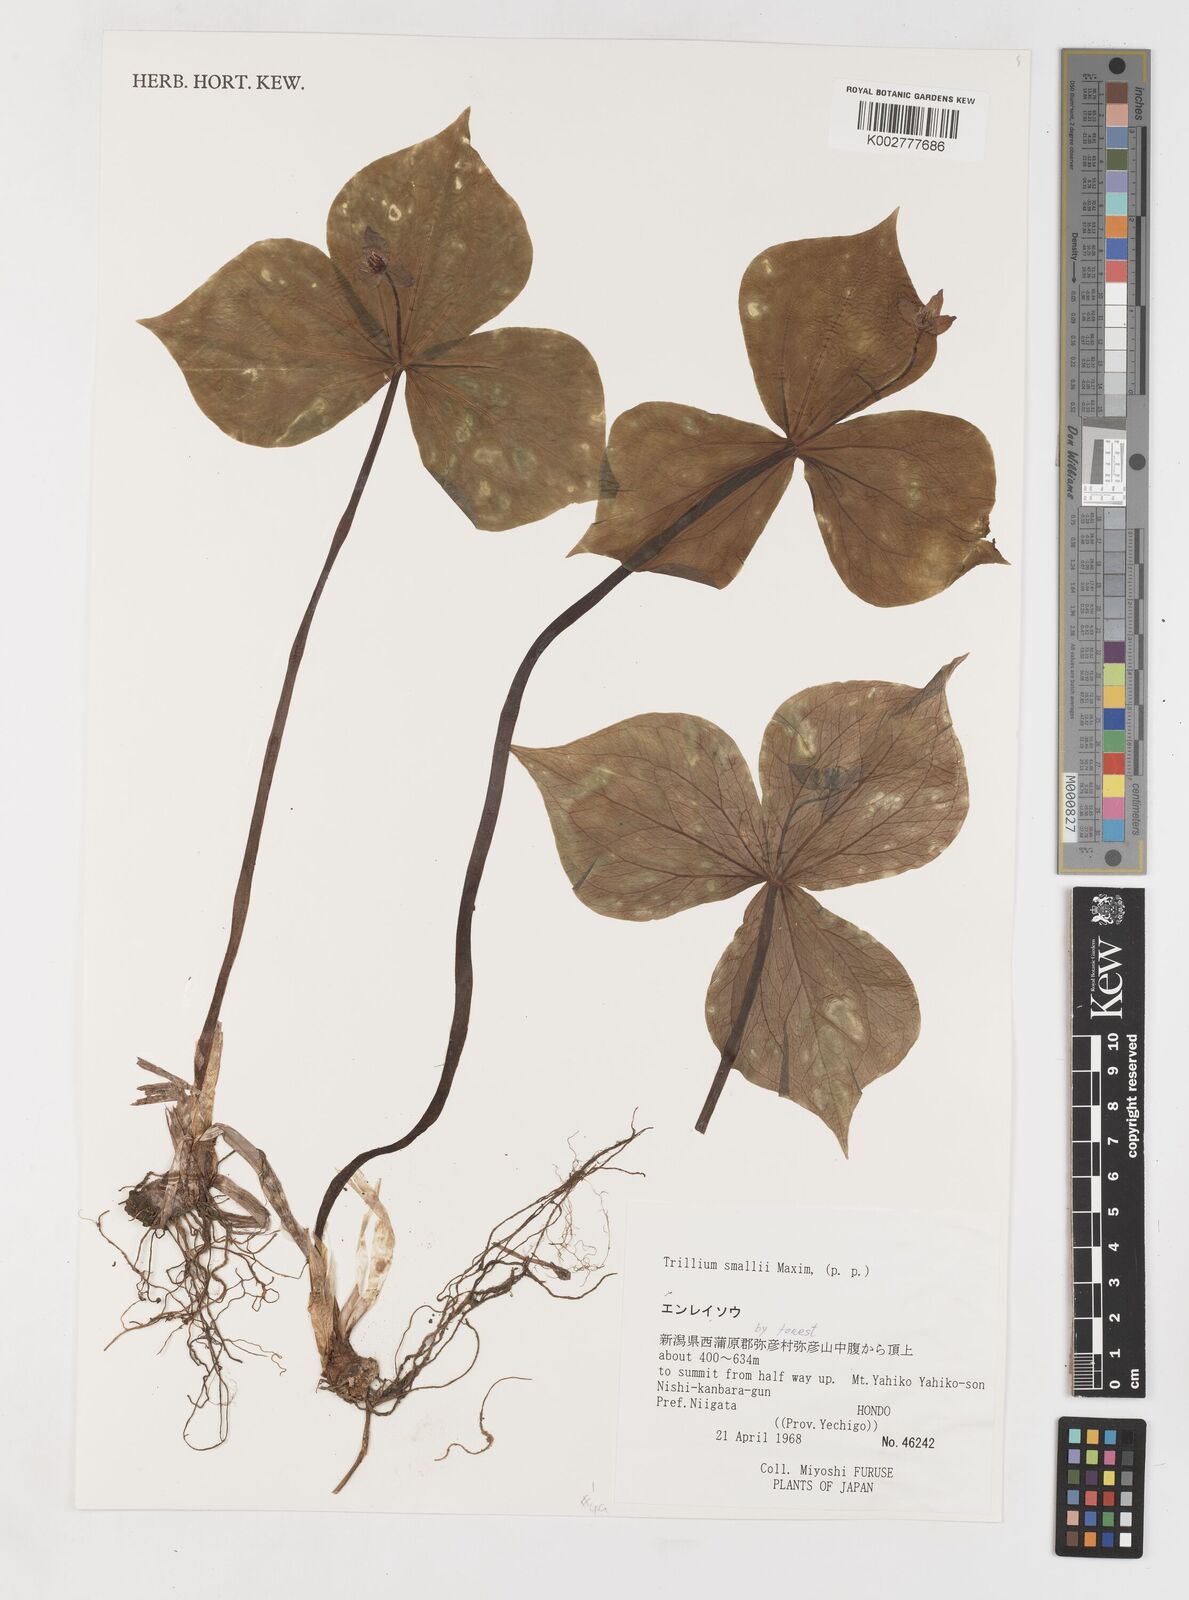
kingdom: Plantae
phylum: Tracheophyta
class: Liliopsida
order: Liliales
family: Melanthiaceae
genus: Trillium
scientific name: Trillium smallii
